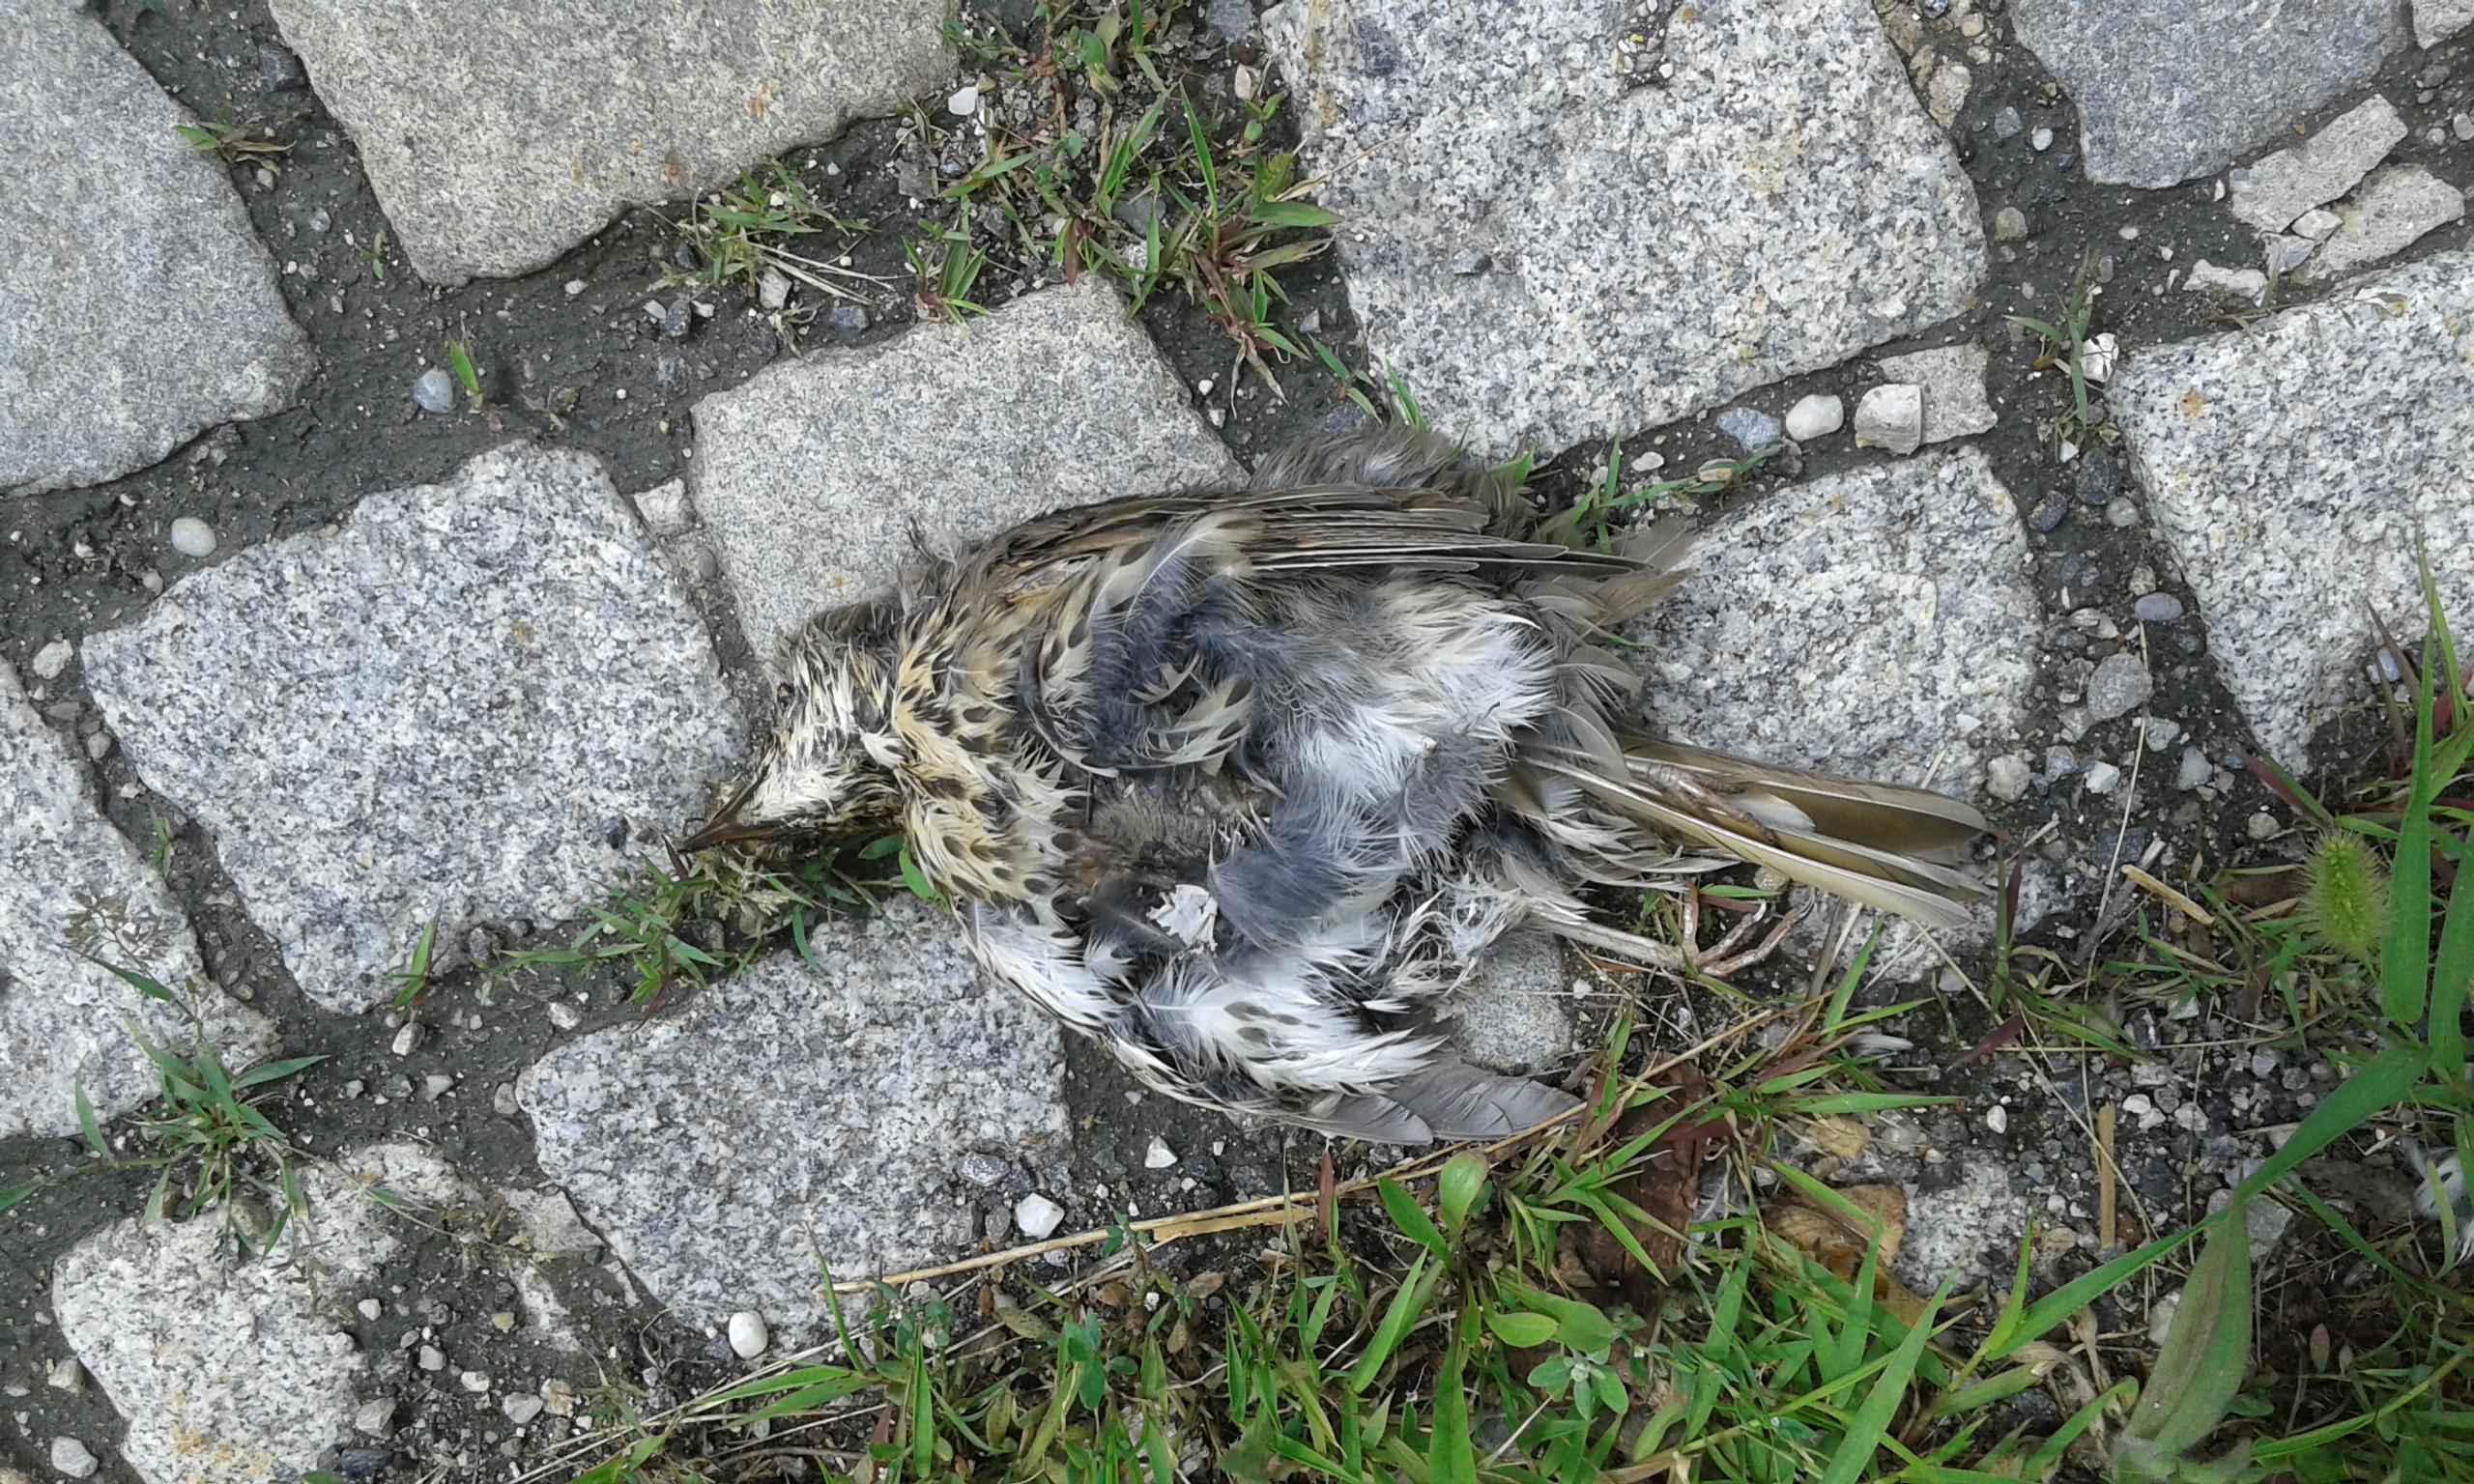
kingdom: Animalia
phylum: Chordata
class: Aves
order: Passeriformes
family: Turdidae
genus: Turdus
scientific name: Turdus philomelos
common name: Song thrush
